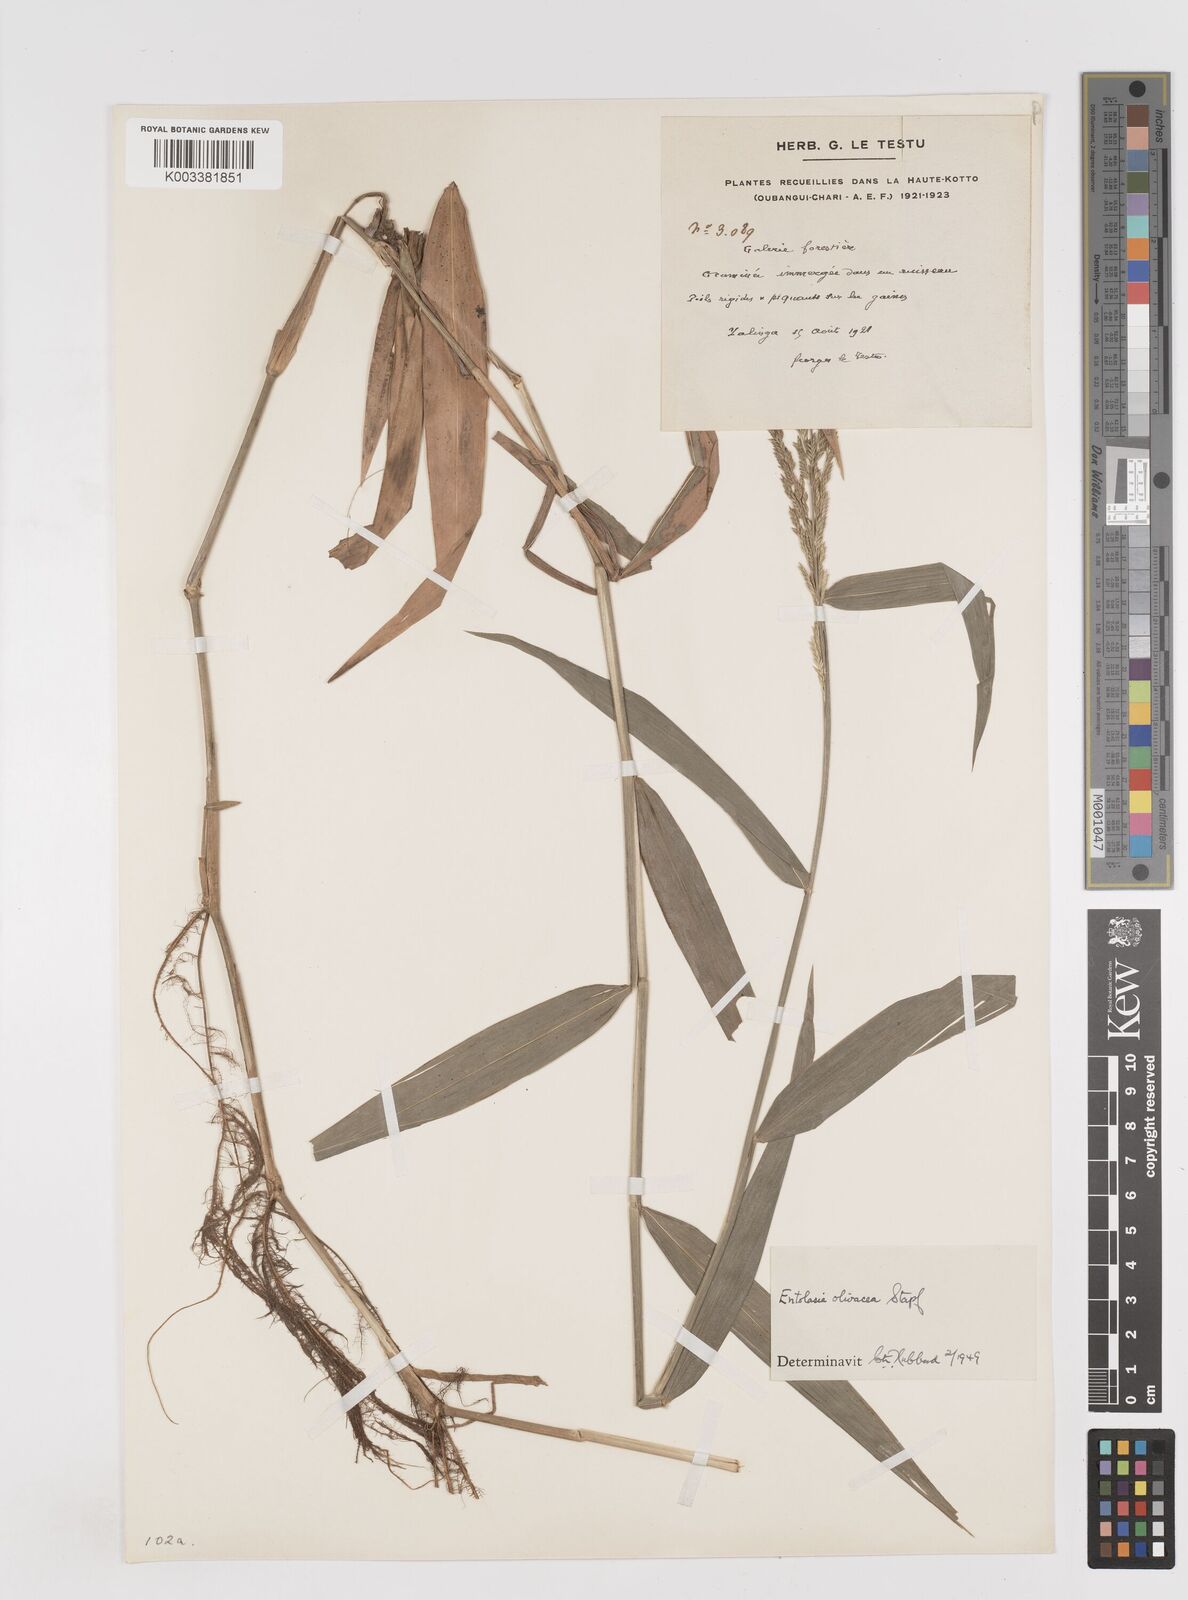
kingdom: Plantae
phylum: Tracheophyta
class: Liliopsida
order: Poales
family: Poaceae
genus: Entolasia
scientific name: Entolasia olivacea
